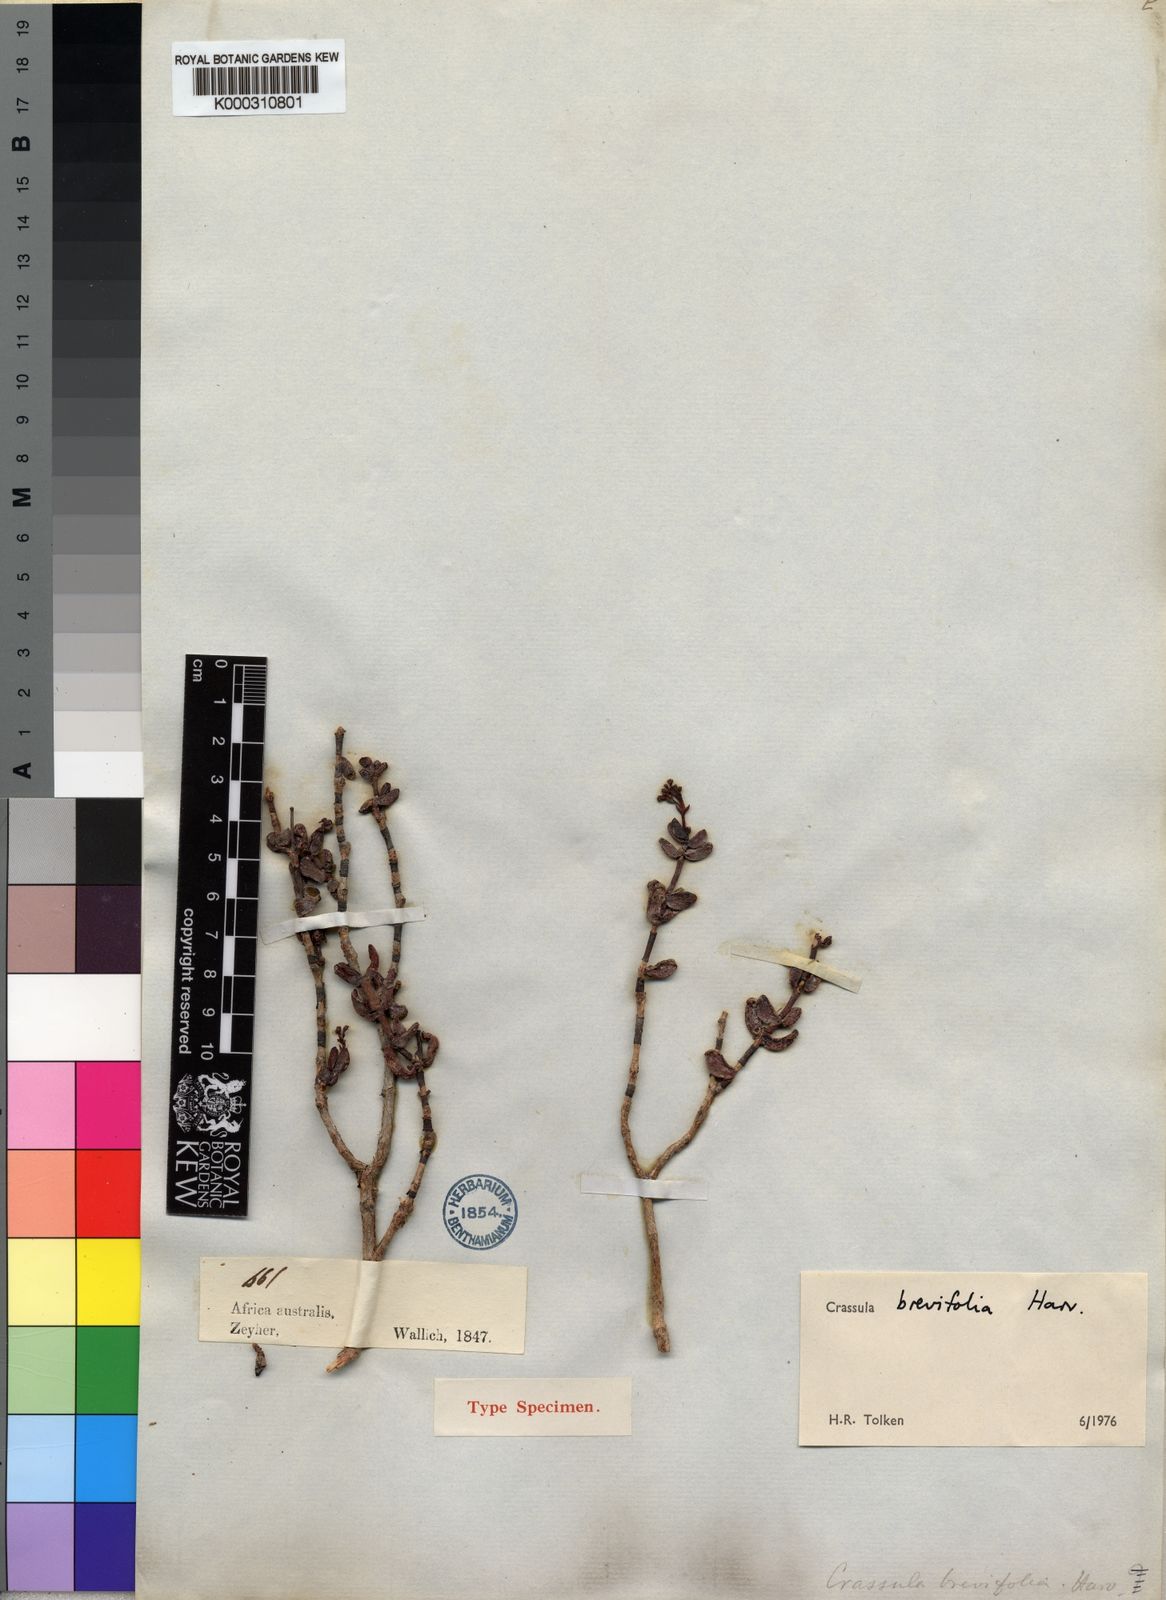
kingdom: Plantae
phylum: Tracheophyta
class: Magnoliopsida
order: Saxifragales
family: Crassulaceae
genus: Crassula
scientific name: Crassula brevifolia
